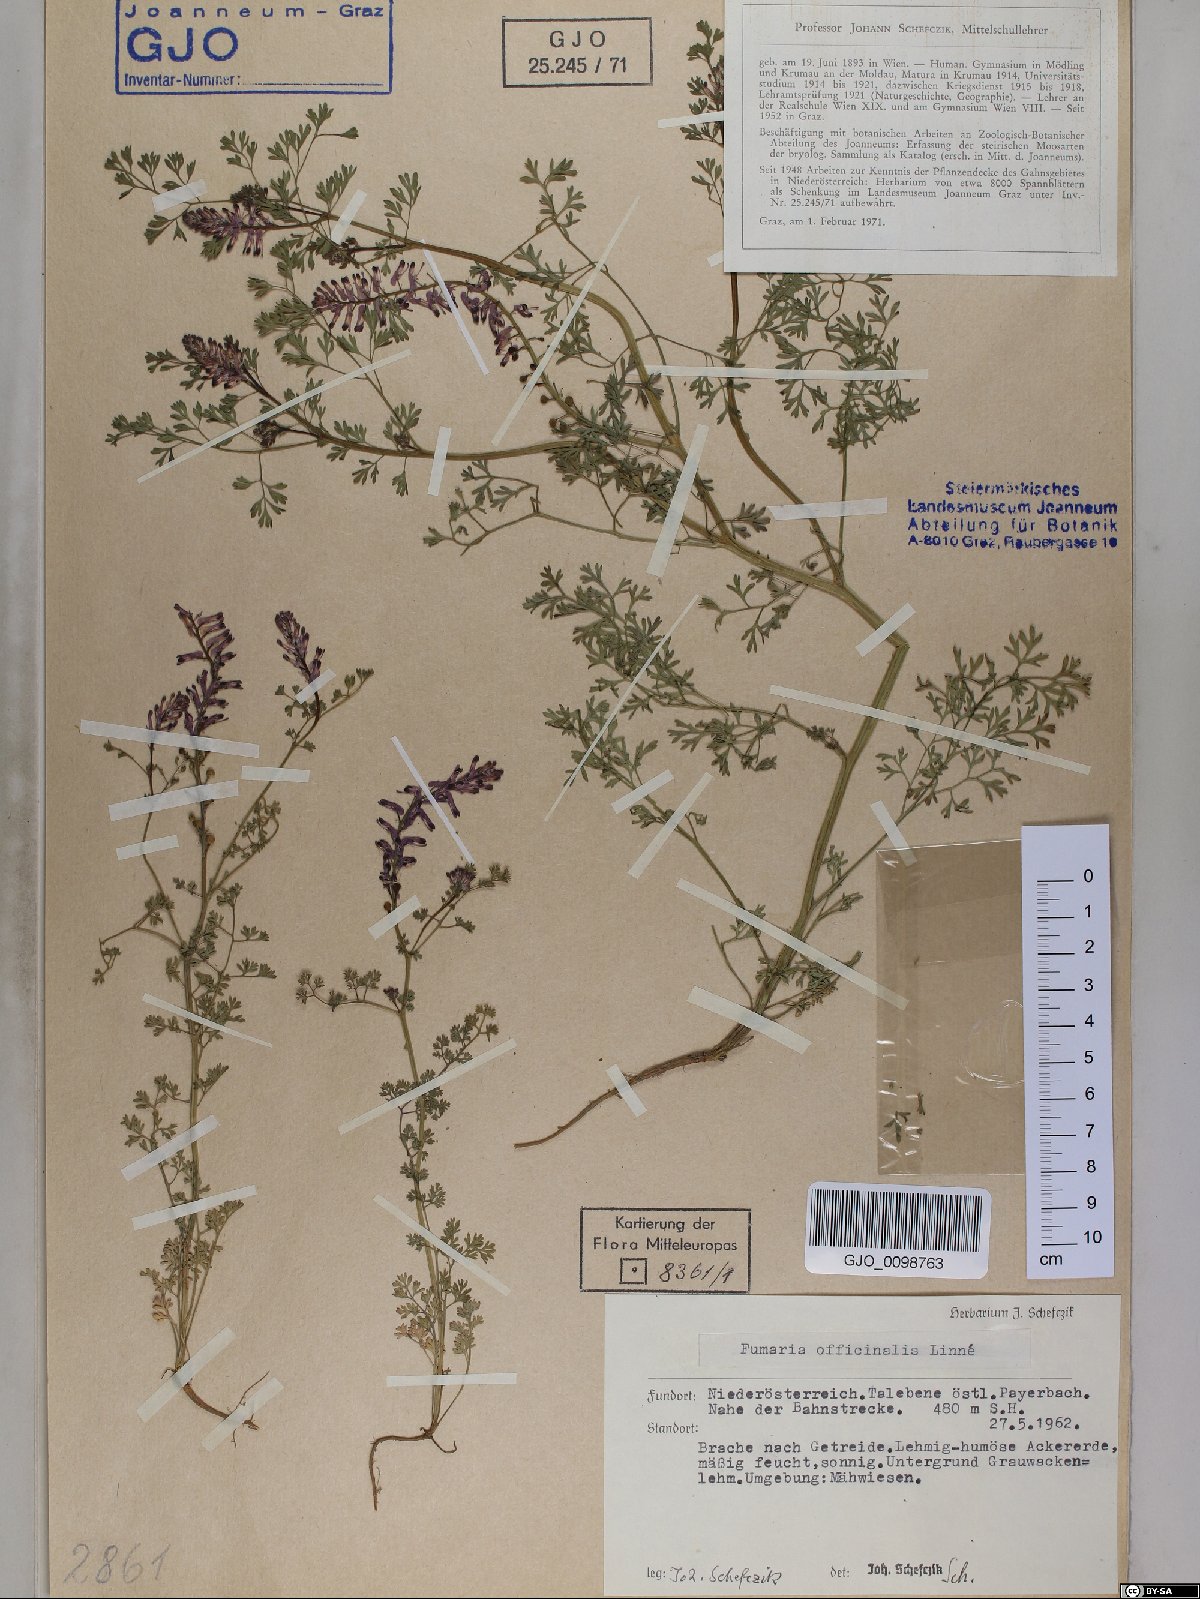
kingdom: Plantae
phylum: Tracheophyta
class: Magnoliopsida
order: Ranunculales
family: Papaveraceae
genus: Fumaria
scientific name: Fumaria officinalis
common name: Common fumitory
